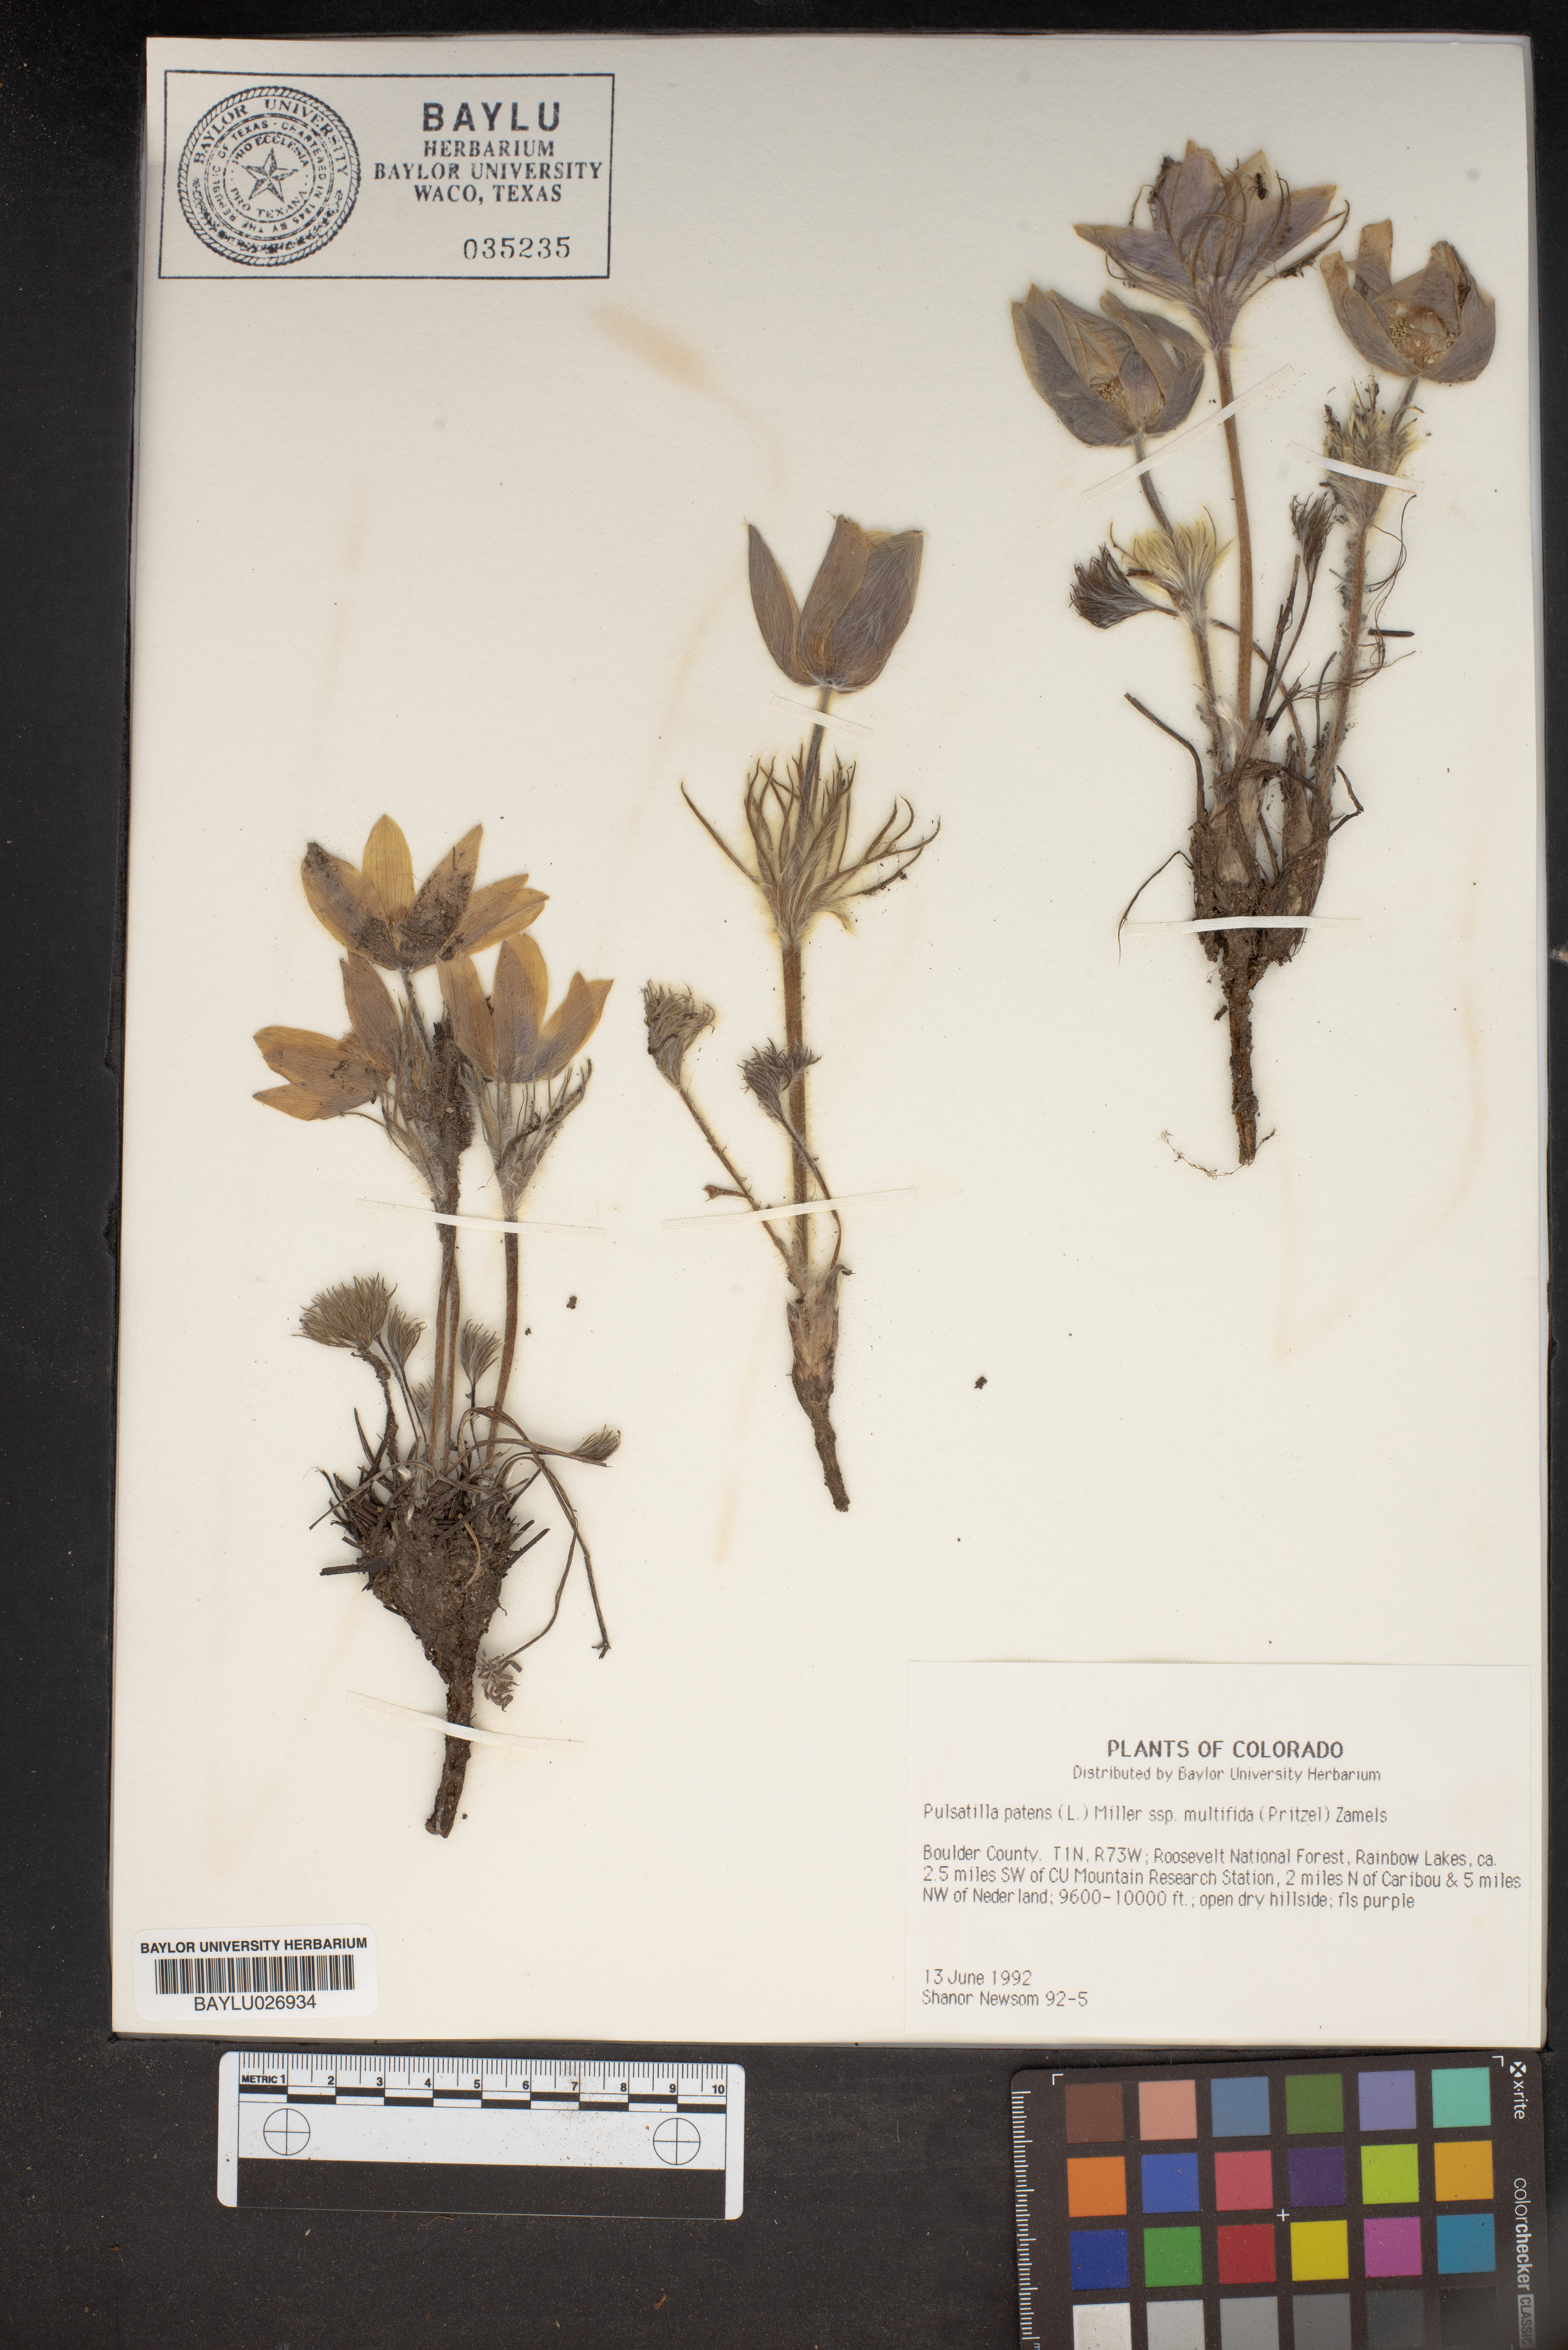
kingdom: Plantae
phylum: Tracheophyta
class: Magnoliopsida
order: Ranunculales
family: Ranunculaceae
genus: Pulsatilla
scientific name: Pulsatilla patens
